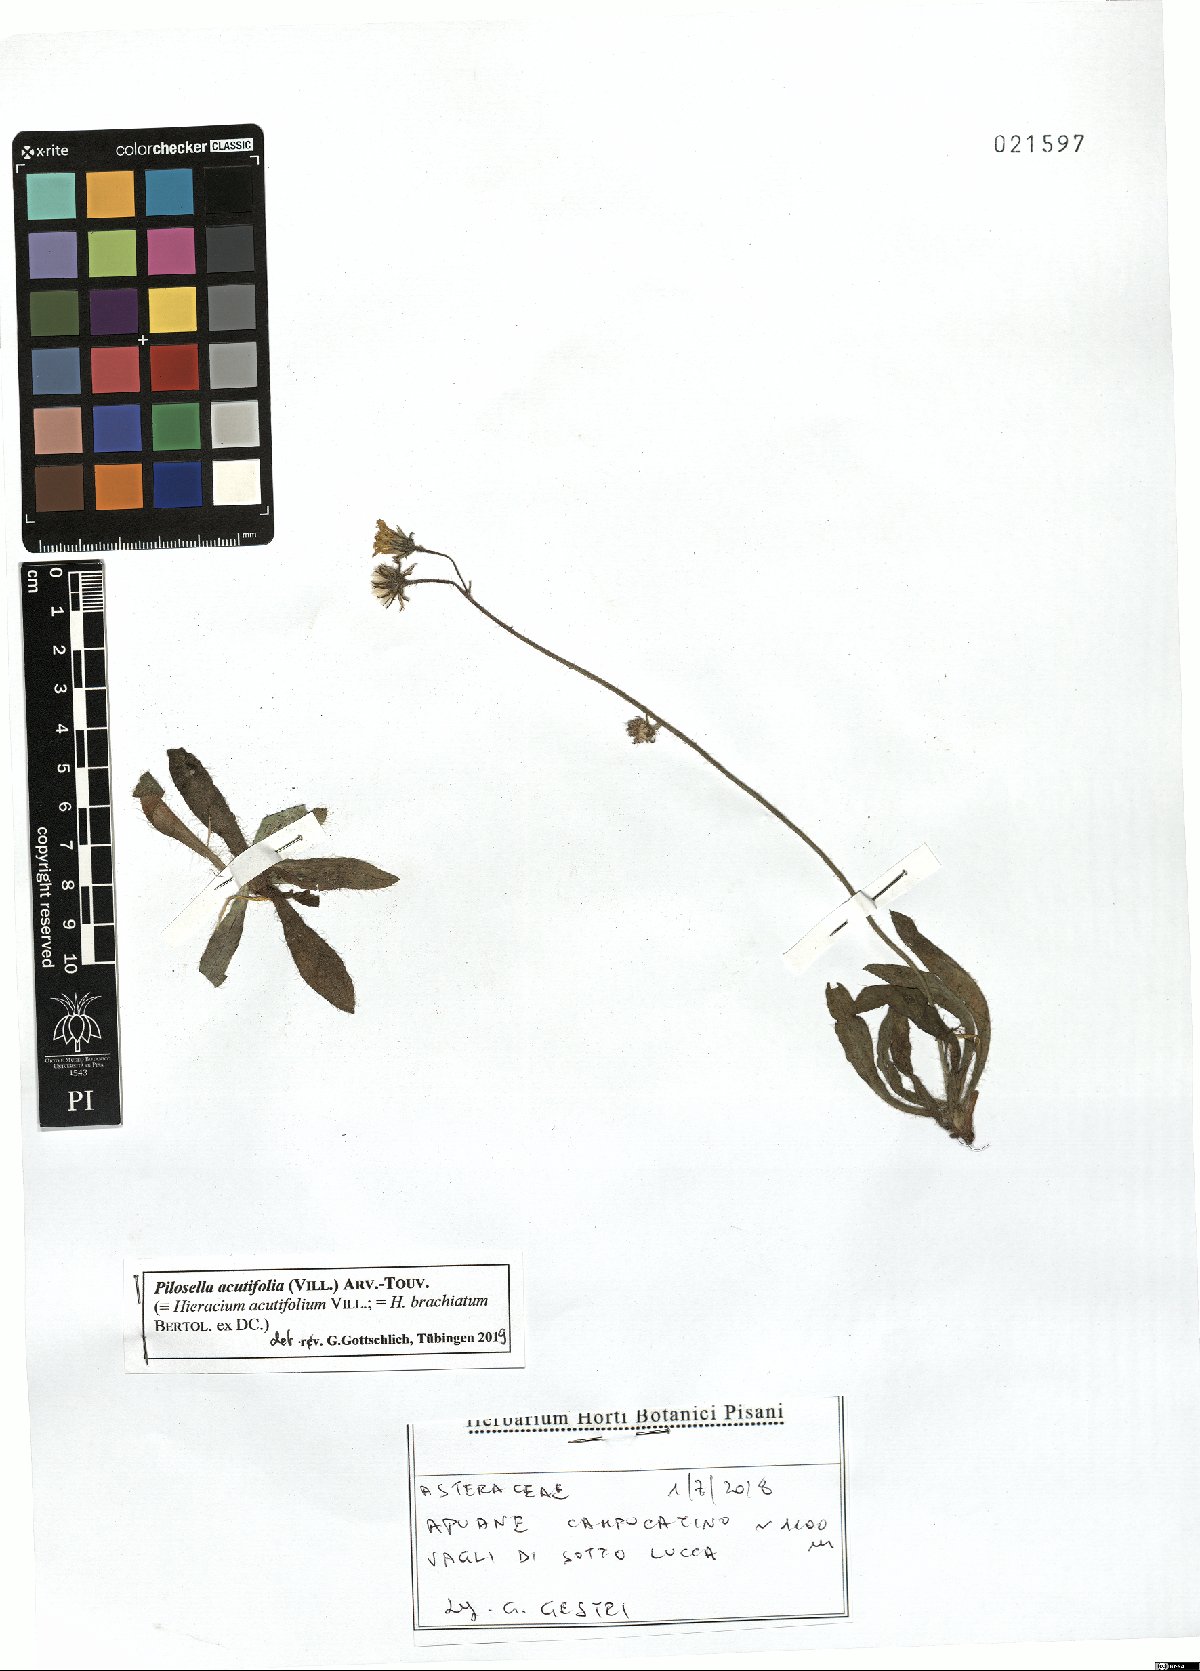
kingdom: Plantae
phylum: Tracheophyta
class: Magnoliopsida
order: Asterales
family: Asteraceae
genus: Pilosella
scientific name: Pilosella acutifolia
